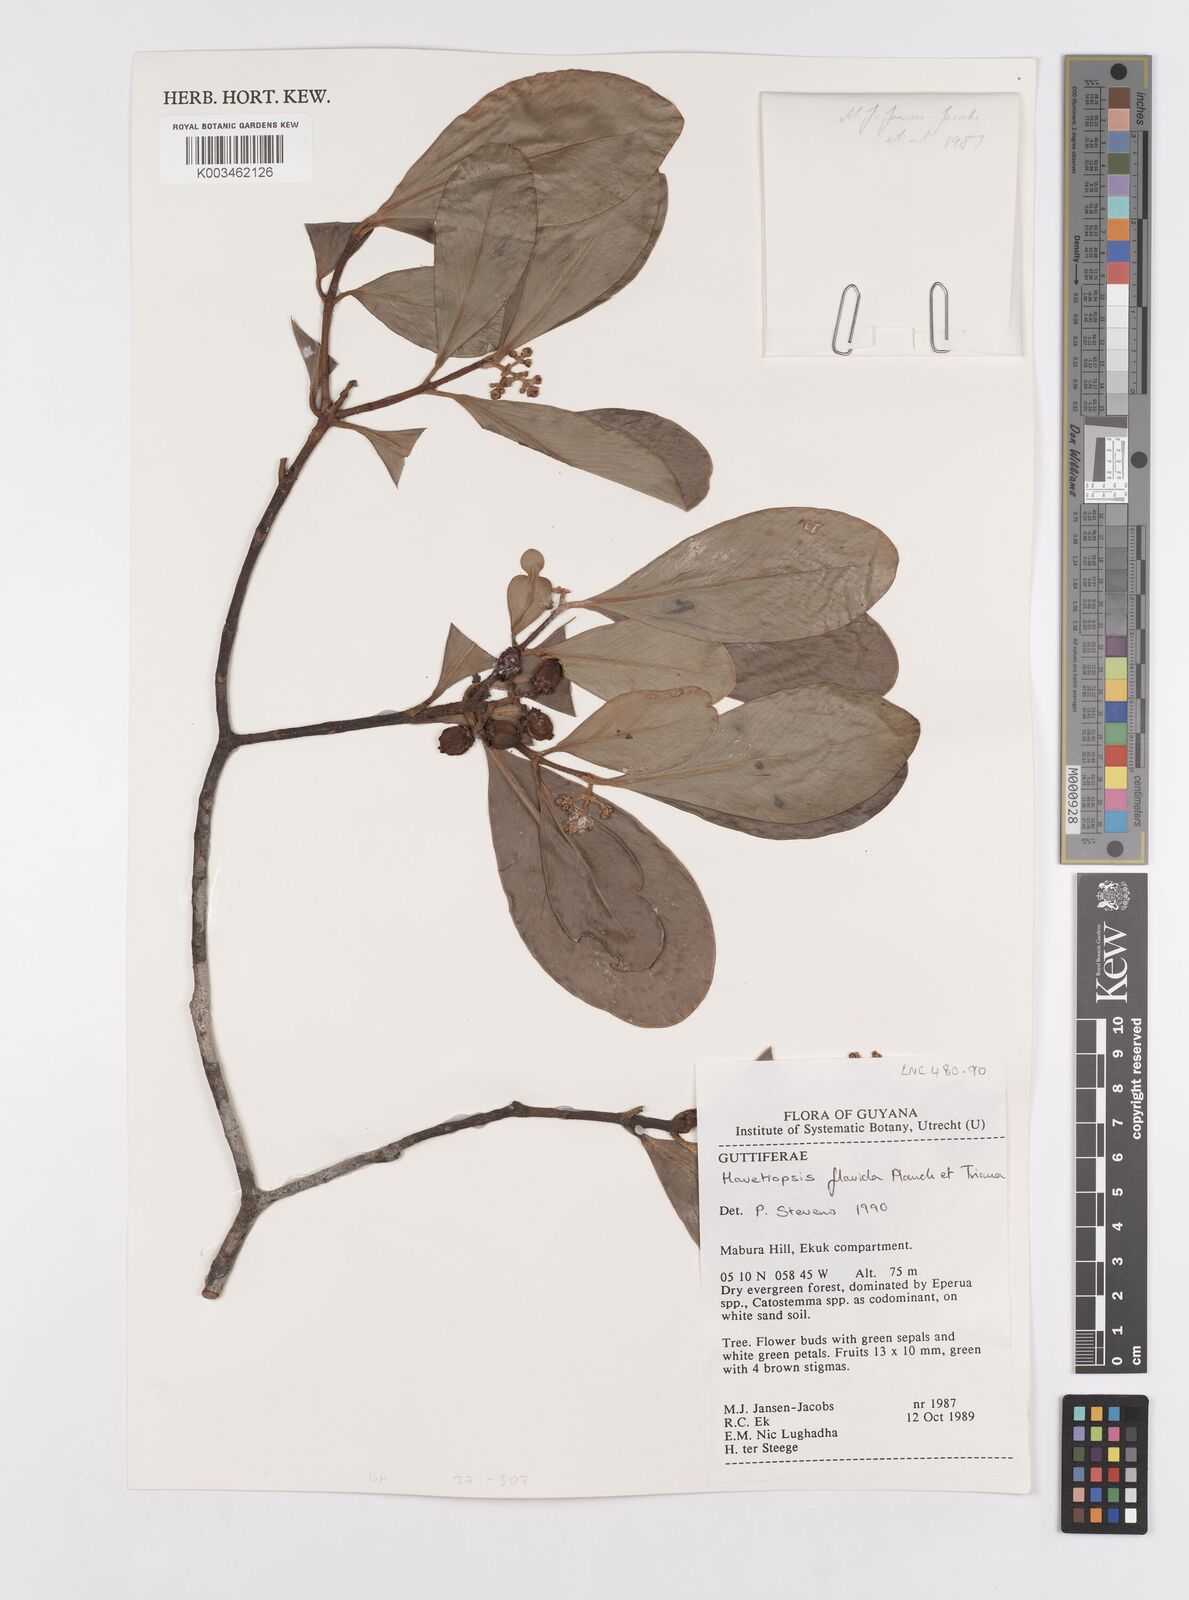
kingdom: Plantae
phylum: Tracheophyta
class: Magnoliopsida
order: Malpighiales
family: Clusiaceae
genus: Clusia
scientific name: Clusia flavida
